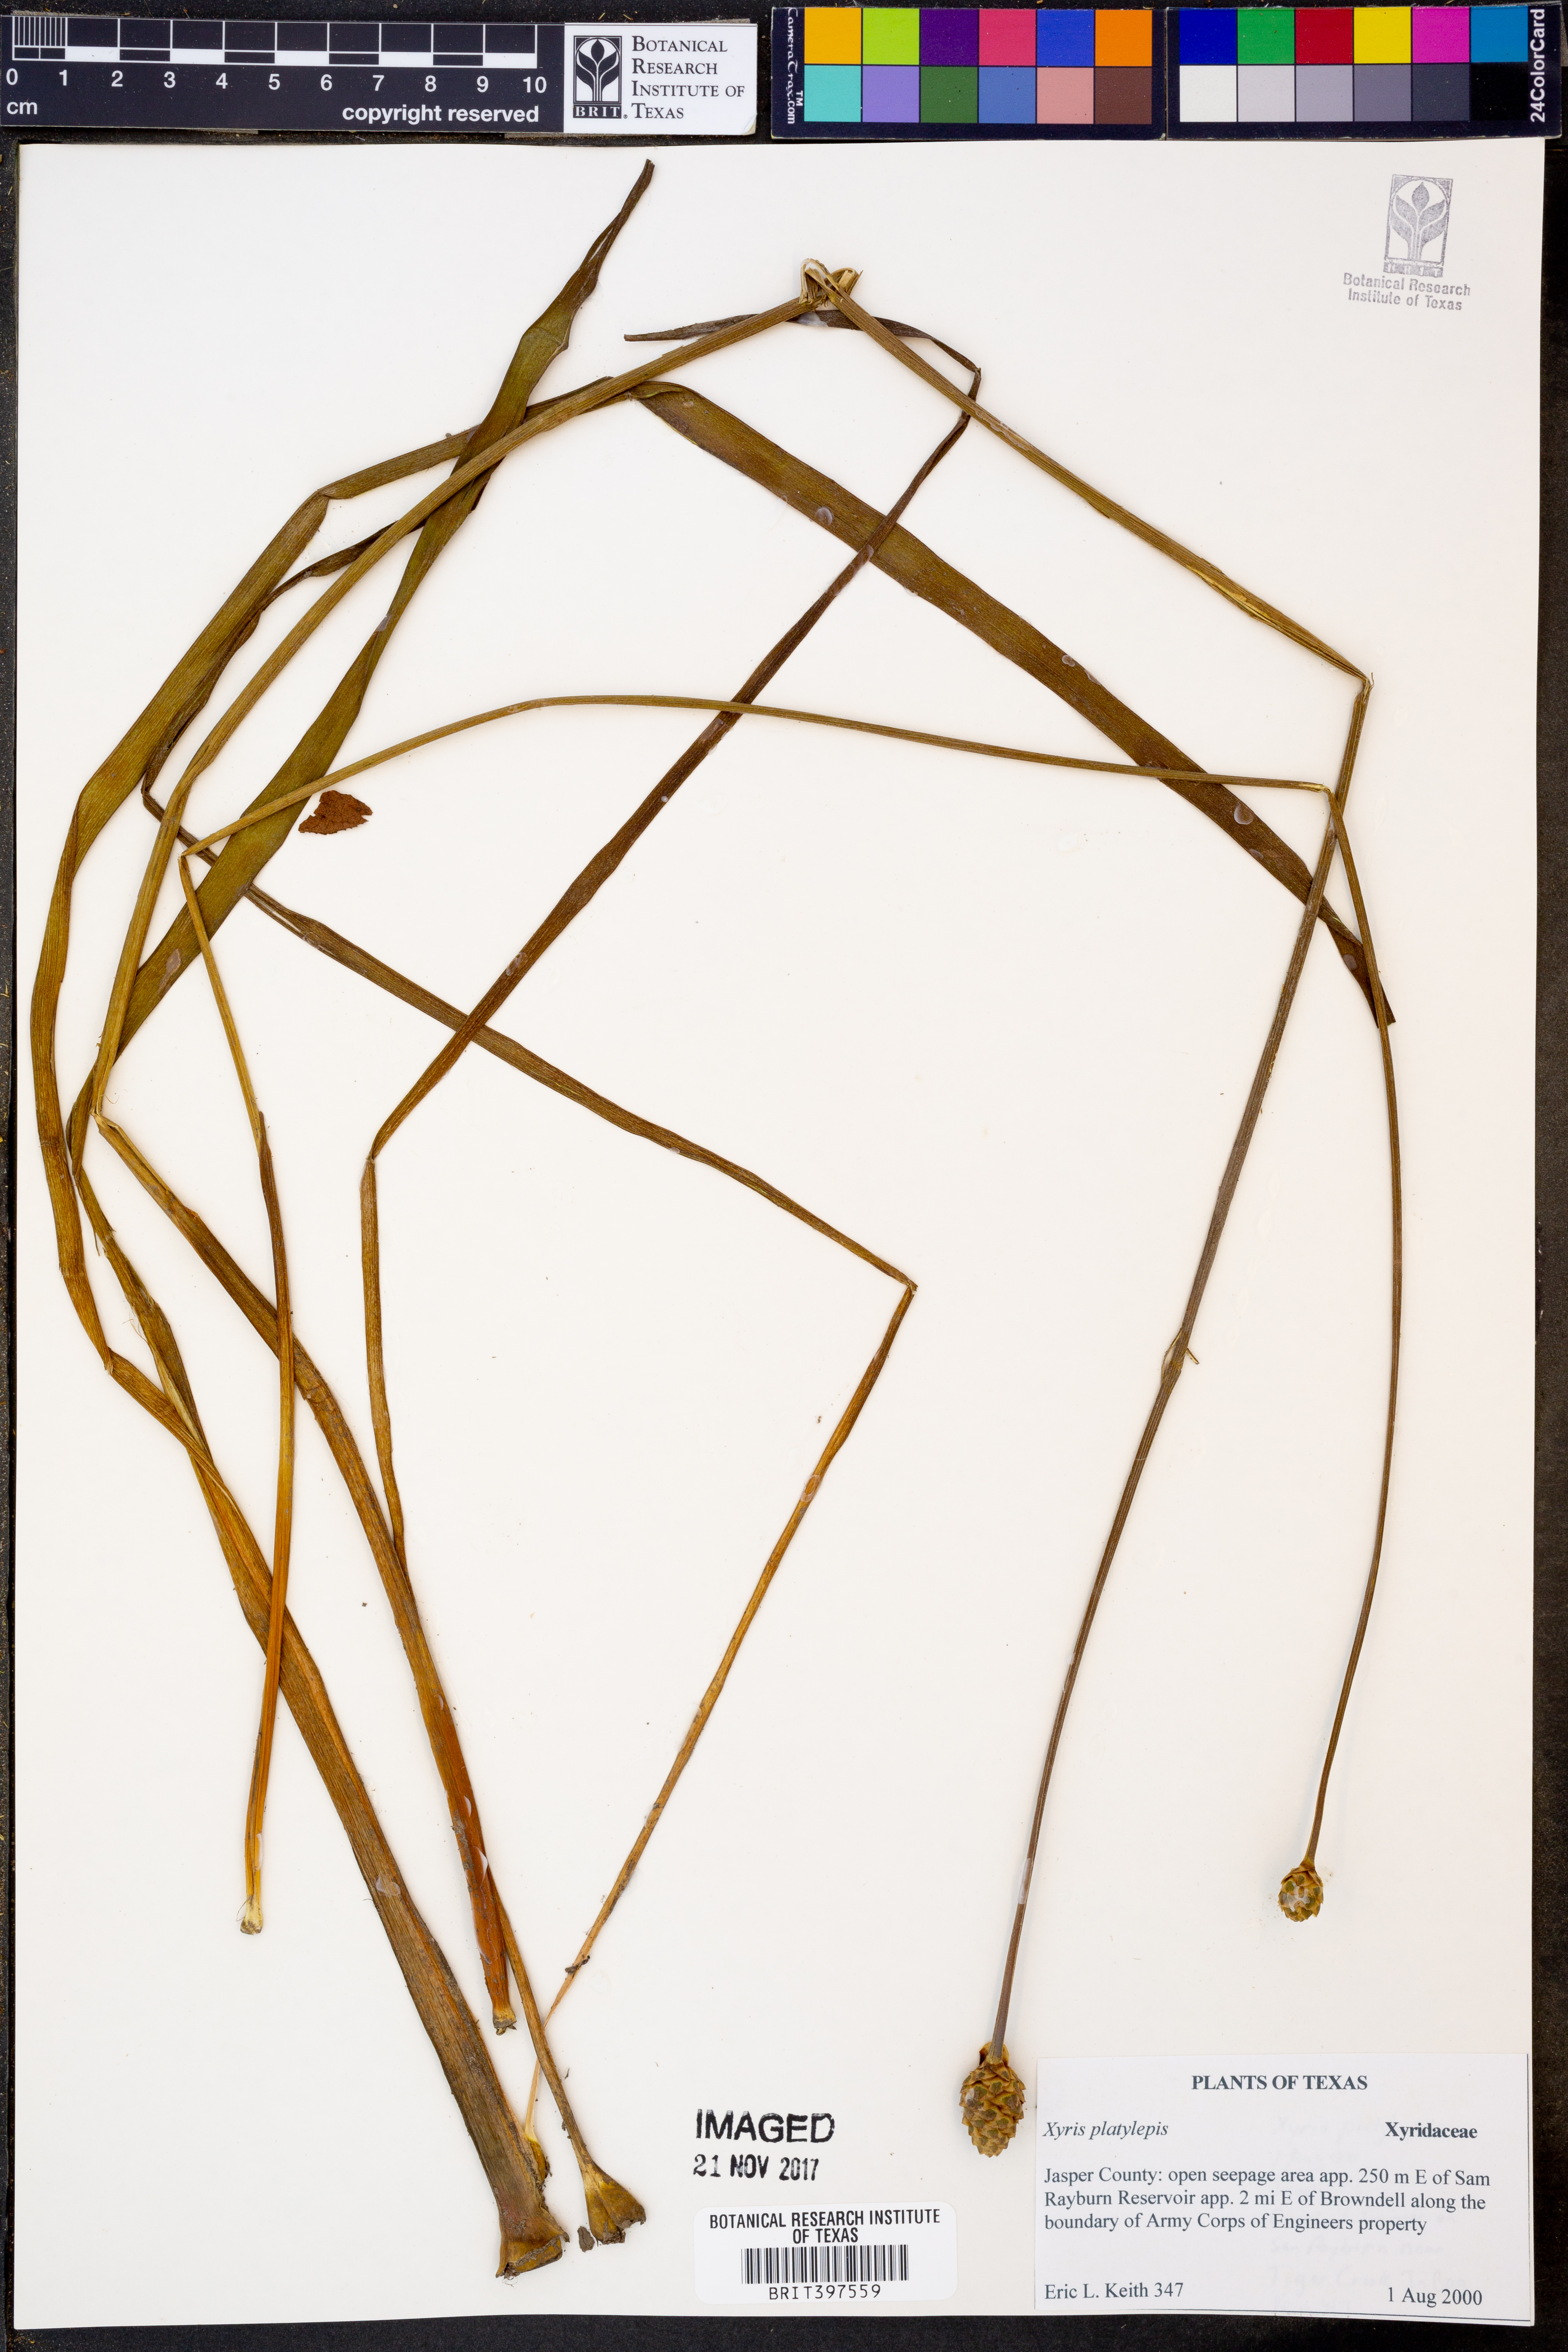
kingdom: Plantae
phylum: Tracheophyta
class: Liliopsida
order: Poales
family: Xyridaceae
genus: Xyris
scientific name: Xyris platylepis
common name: Tall yelloweyed grass
